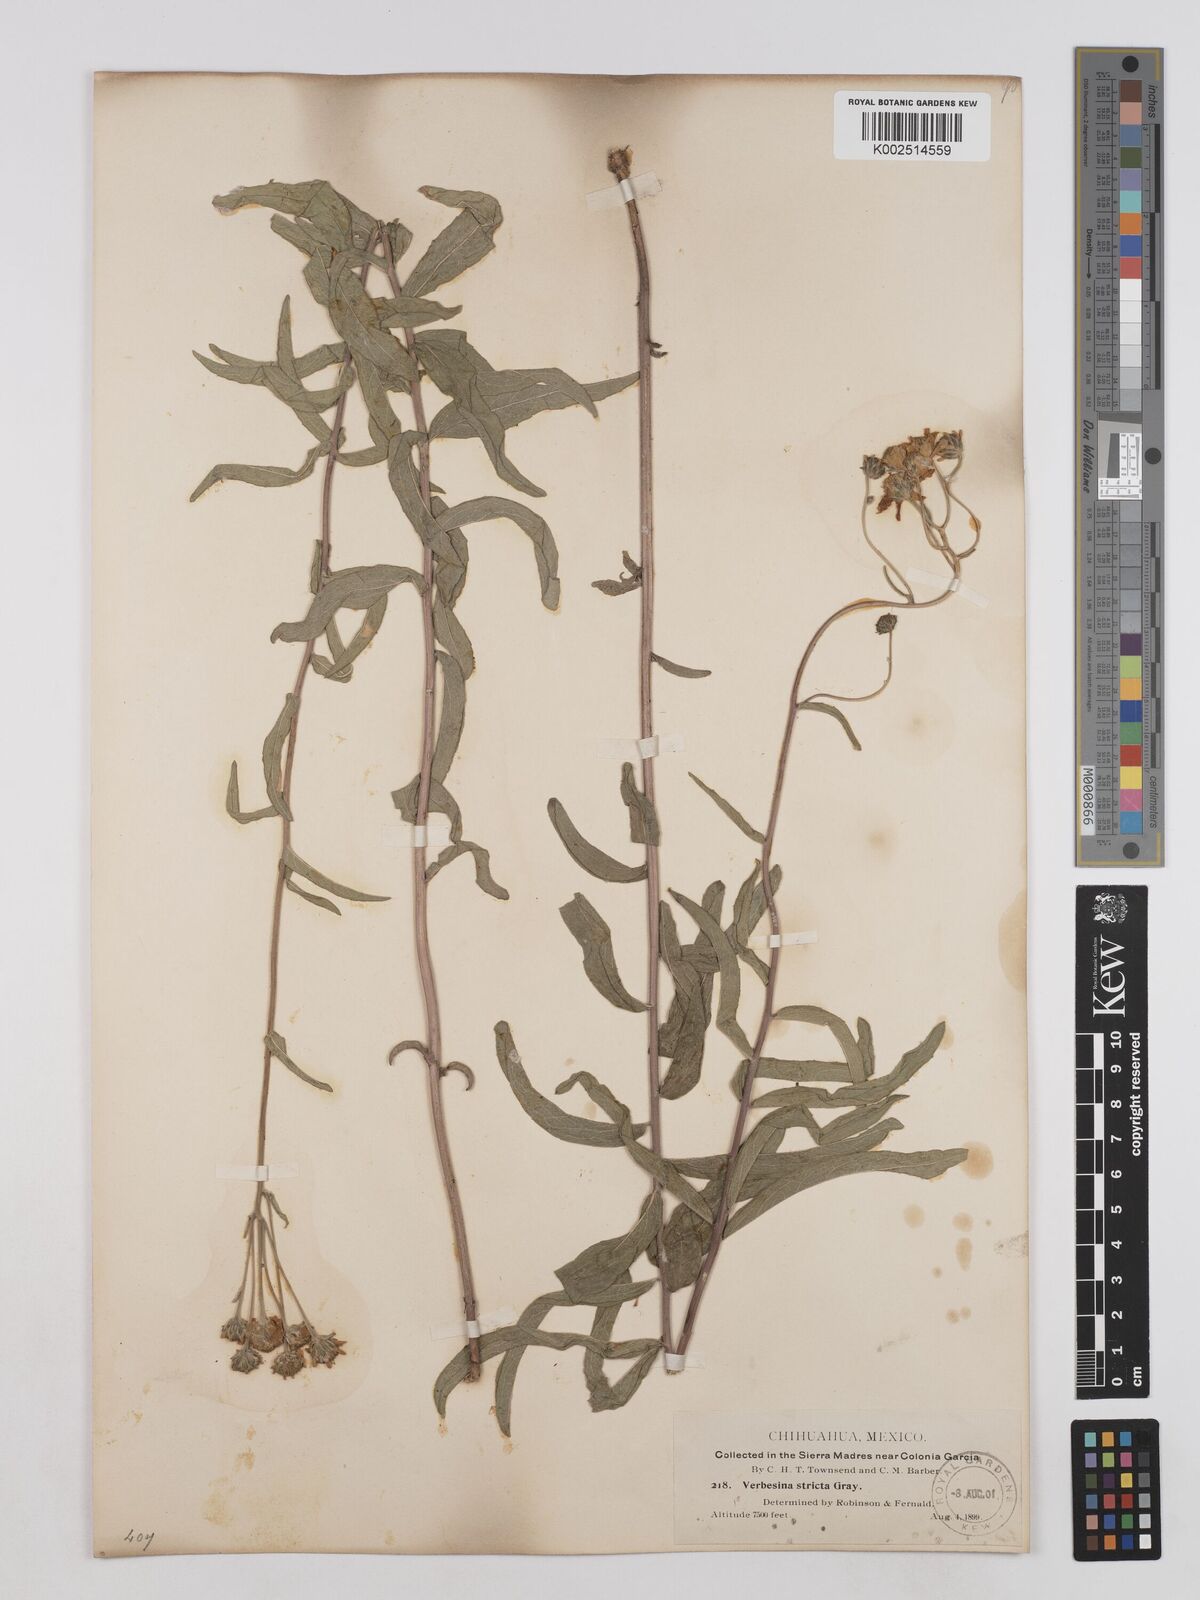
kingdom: Plantae
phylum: Tracheophyta
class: Magnoliopsida
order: Asterales
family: Asteraceae
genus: Verbesina
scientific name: Verbesina parviflora
